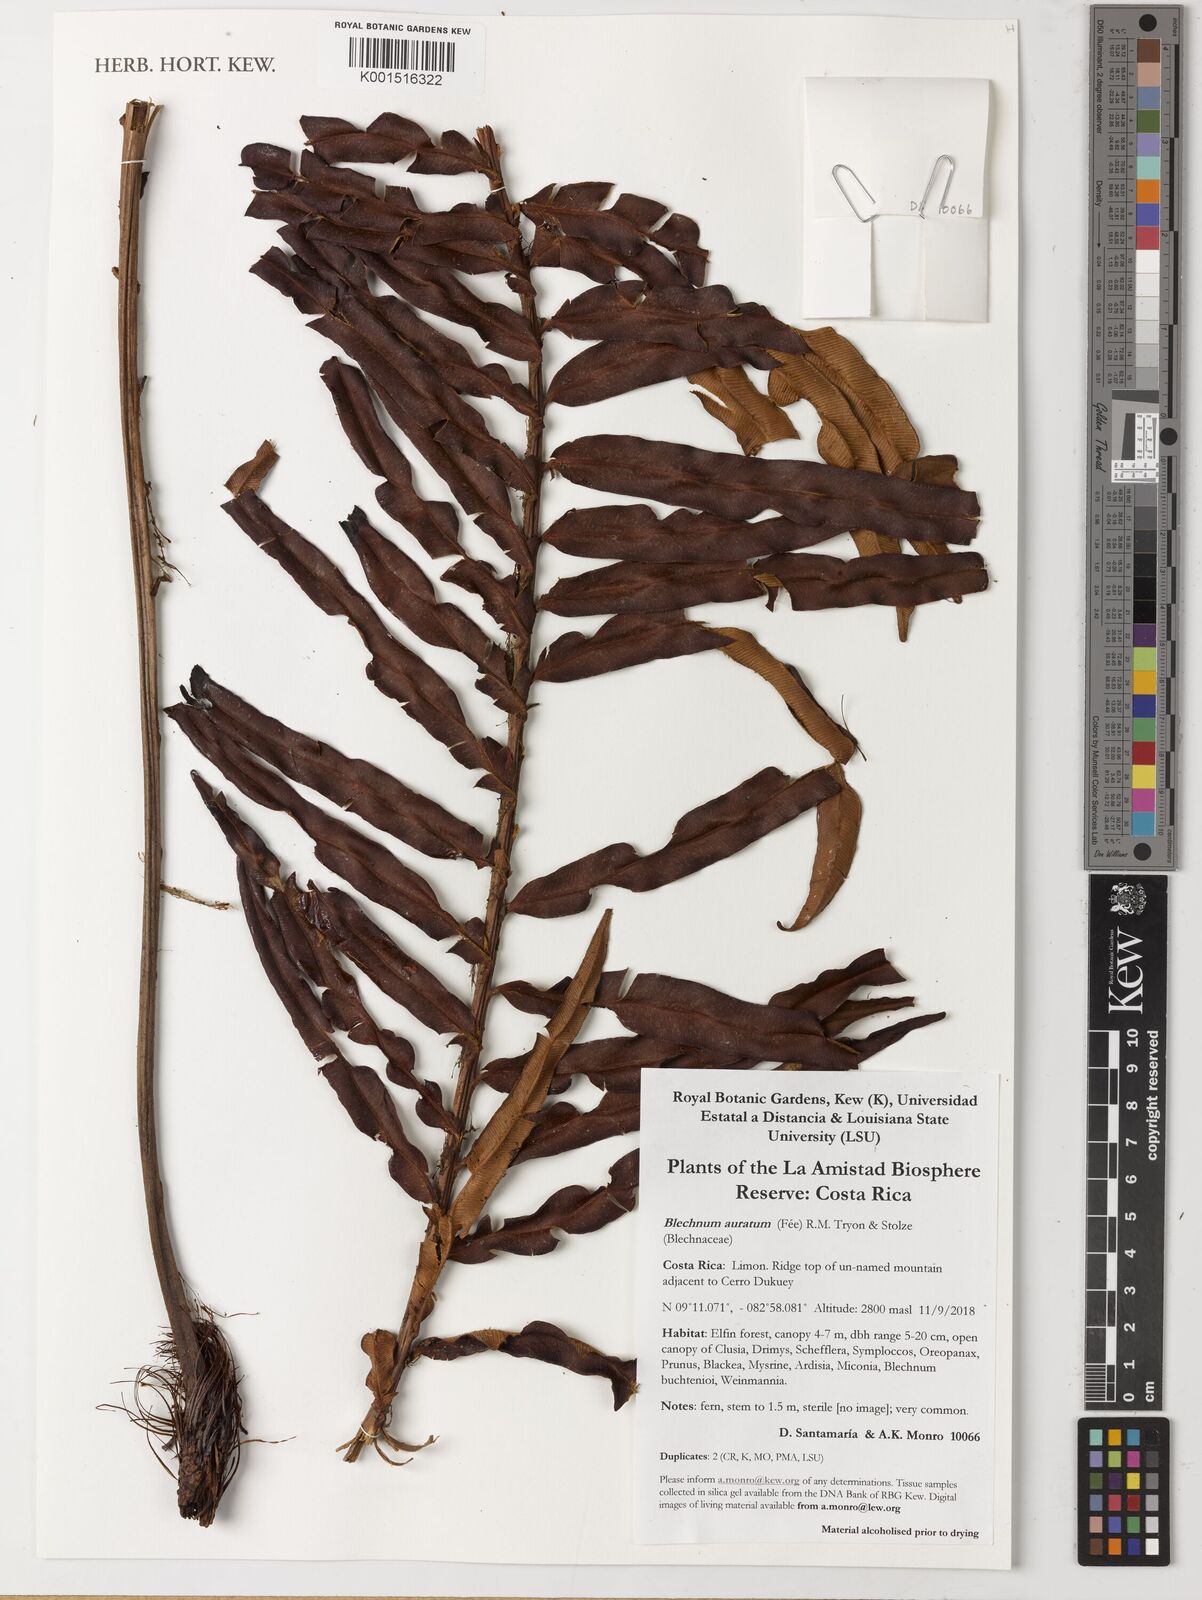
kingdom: Plantae
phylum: Tracheophyta
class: Polypodiopsida
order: Polypodiales
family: Blechnaceae
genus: Lomariocycas
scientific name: Lomariocycas aurata
